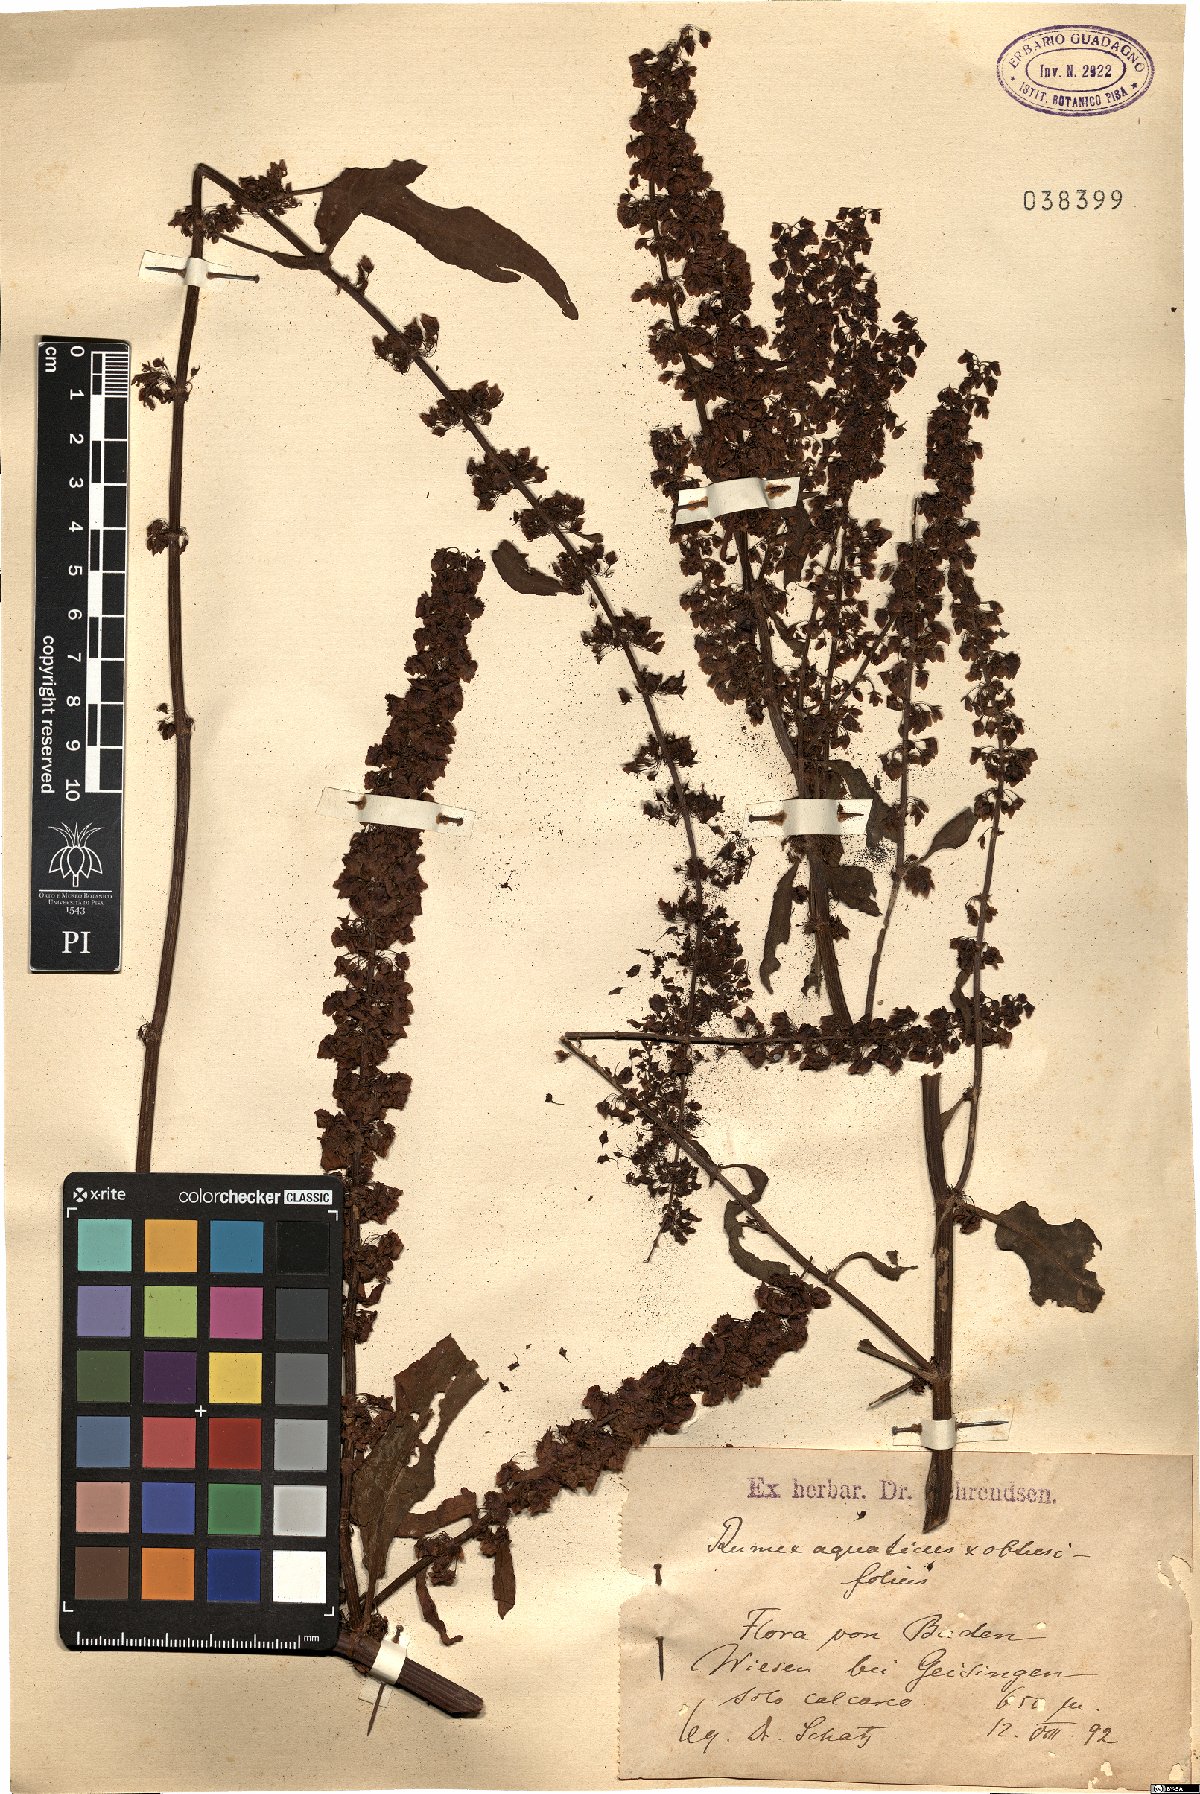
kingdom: Plantae
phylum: Tracheophyta
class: Magnoliopsida
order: Caryophyllales
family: Polygonaceae
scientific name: Polygonaceae
